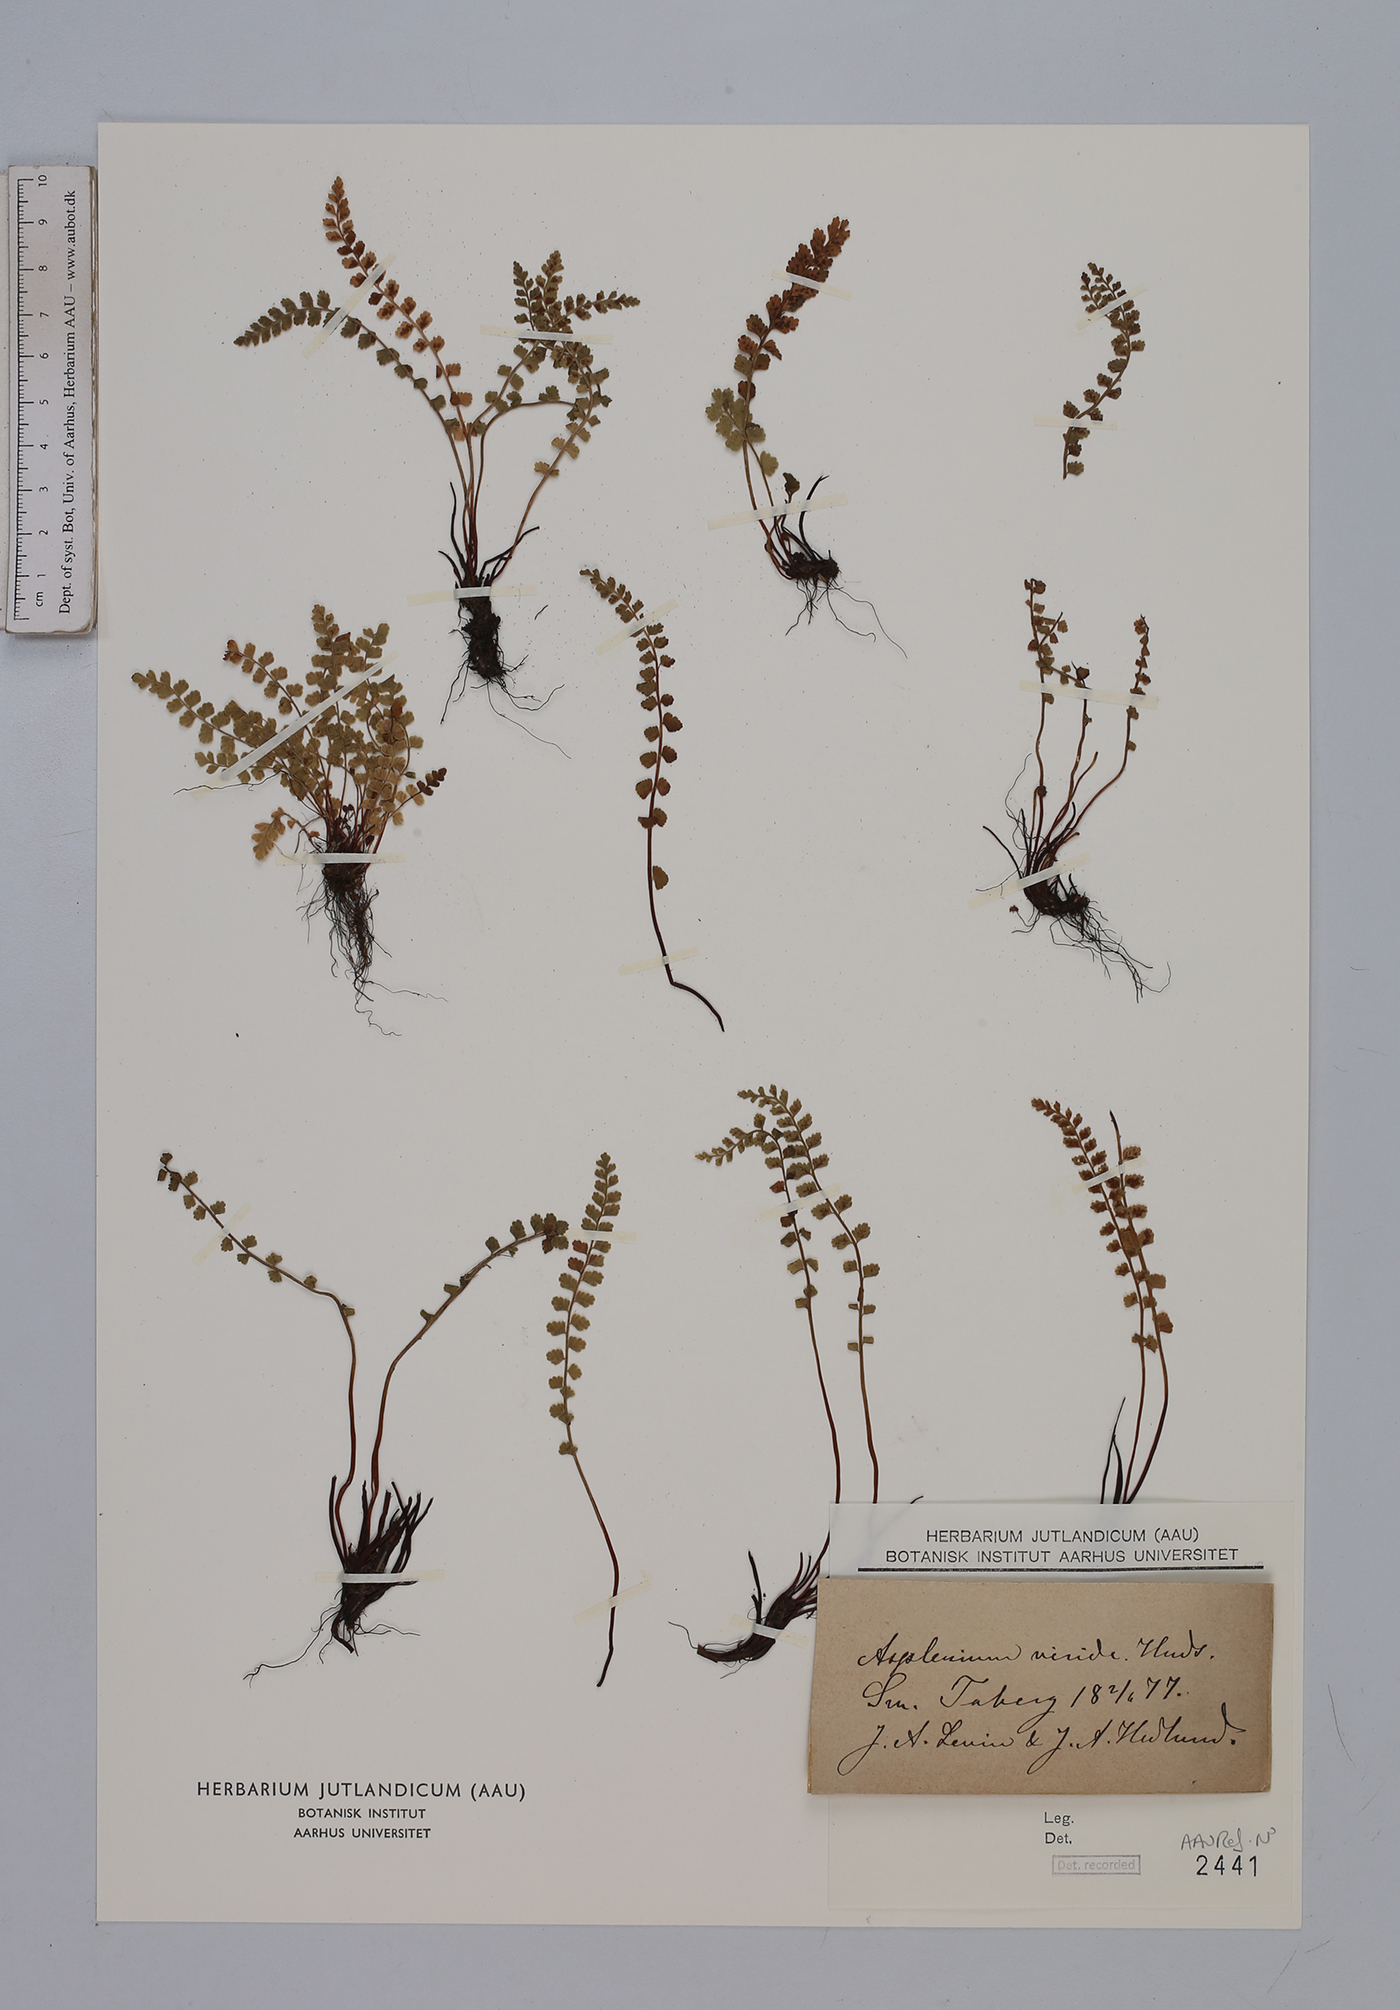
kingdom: Plantae
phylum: Tracheophyta
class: Polypodiopsida
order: Polypodiales
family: Aspleniaceae
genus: Asplenium
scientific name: Asplenium viride
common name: Green spleenwort
